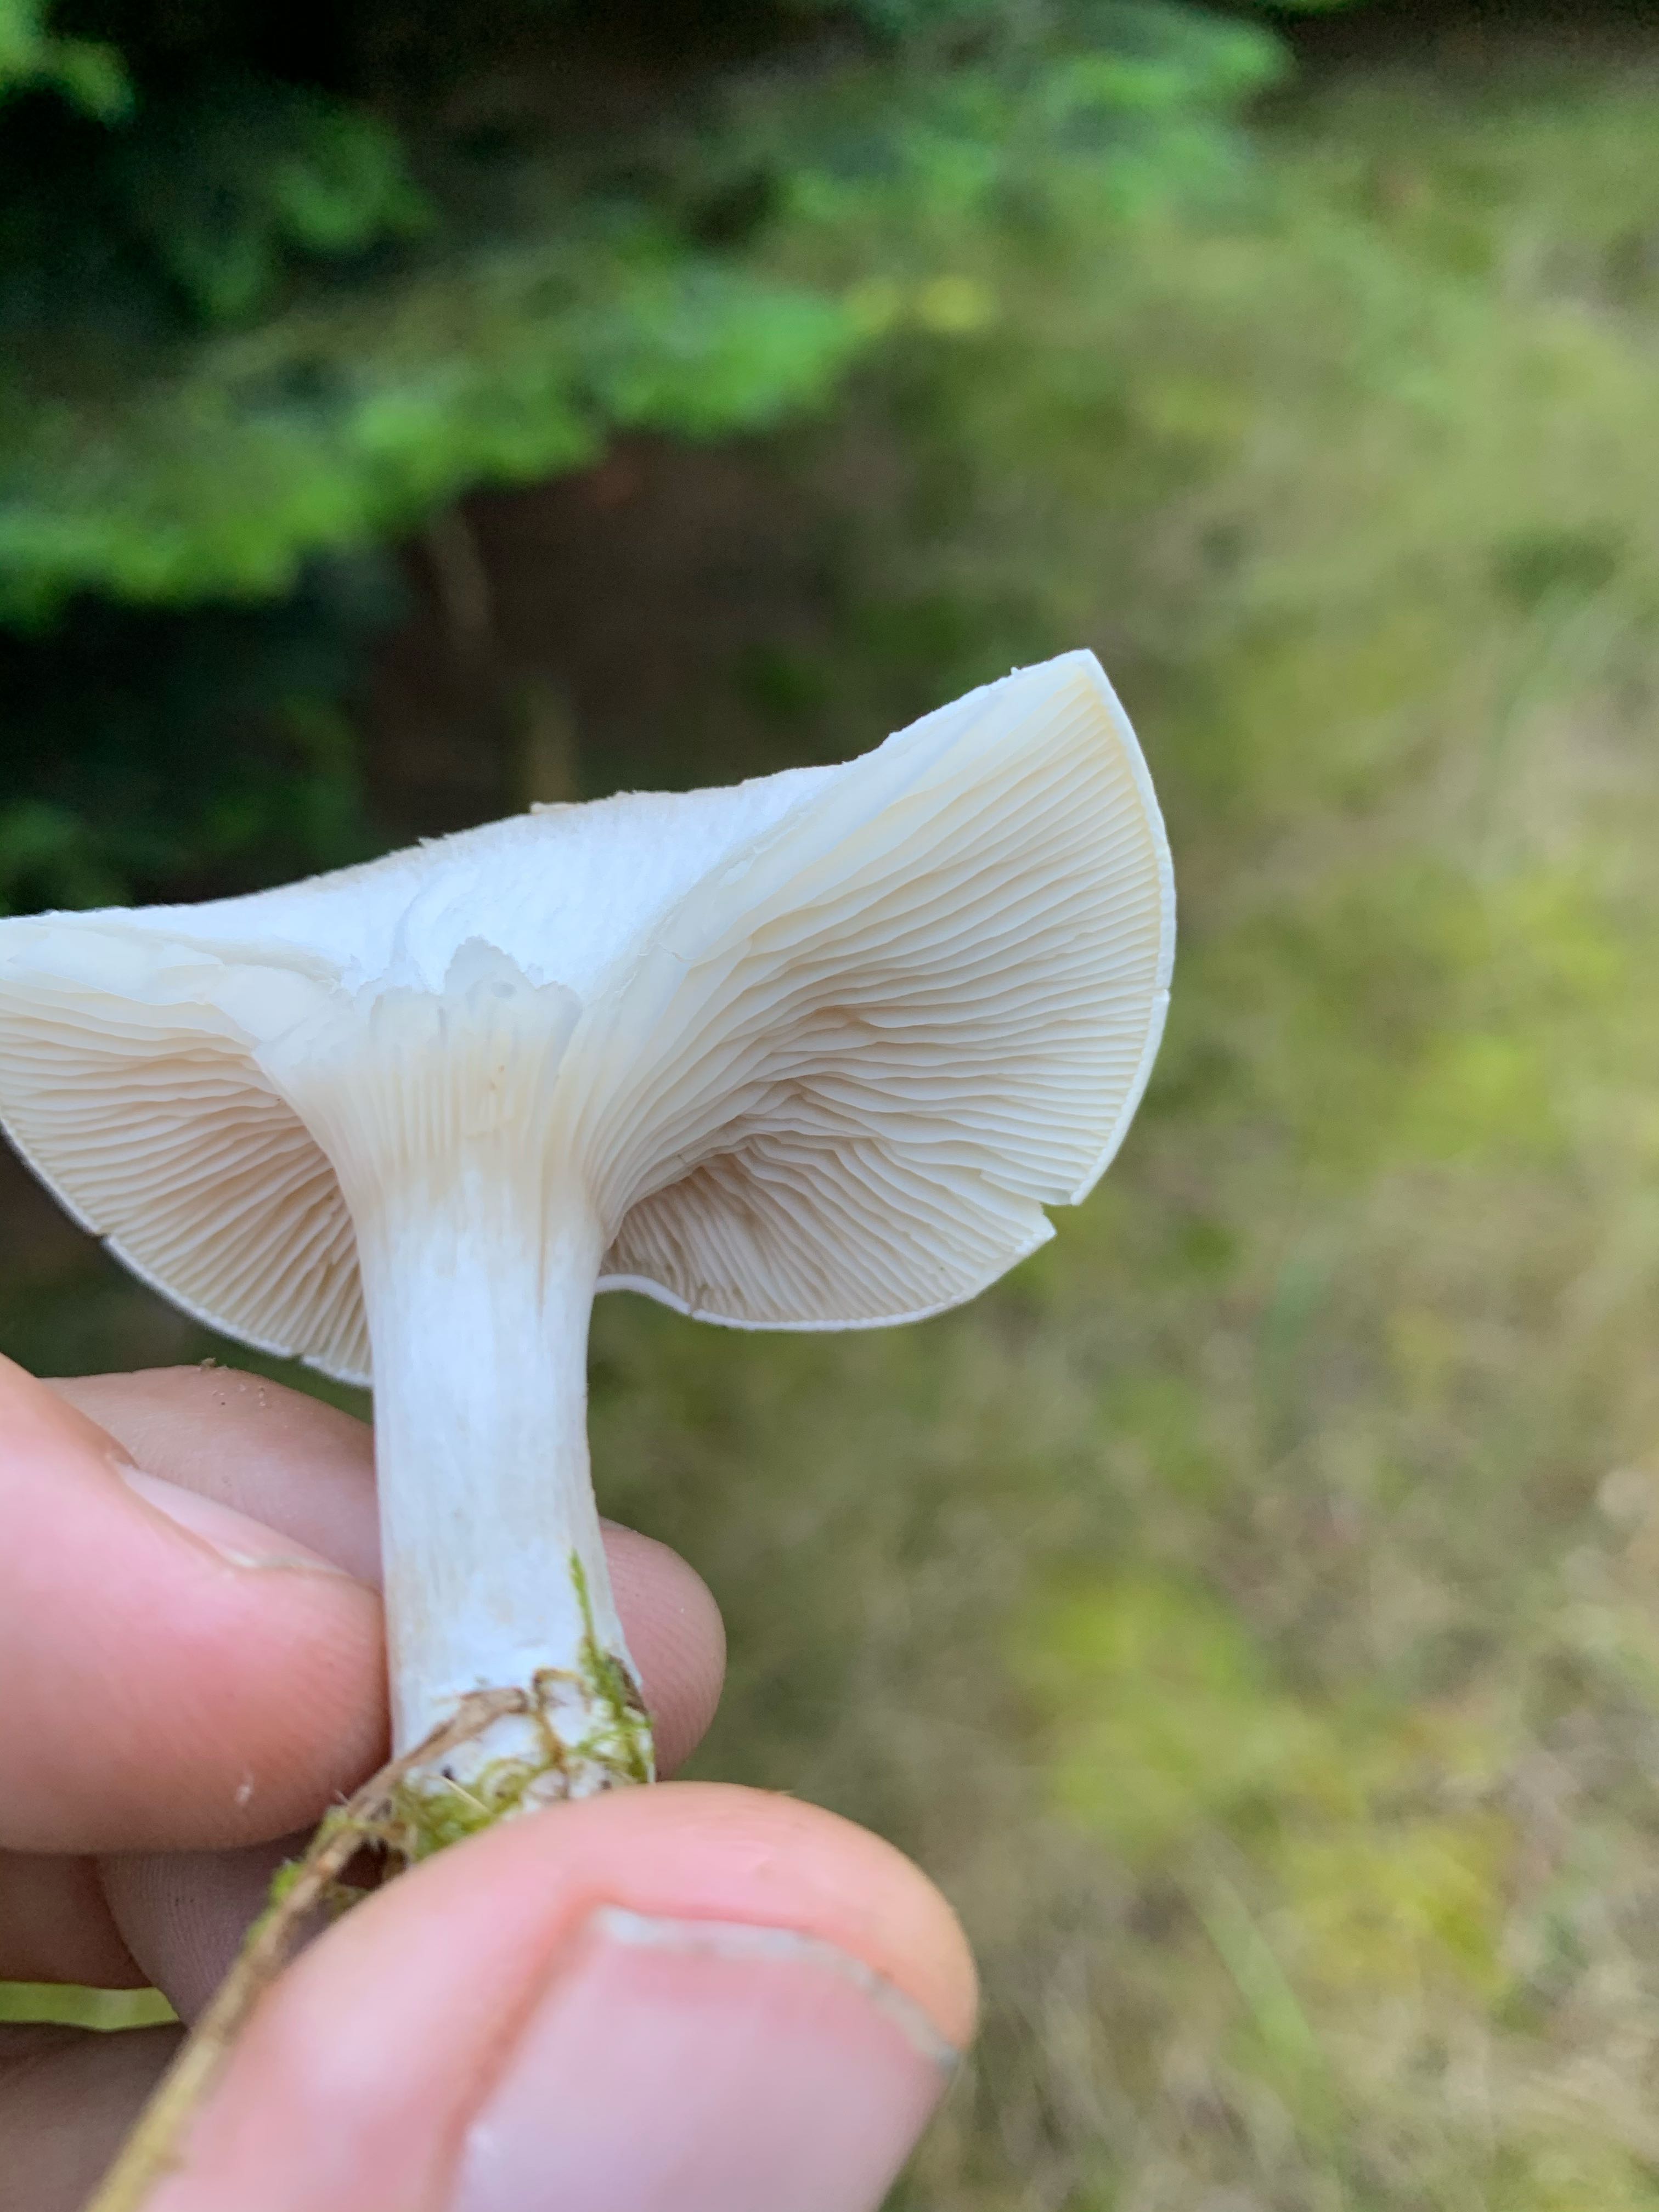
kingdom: Fungi
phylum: Basidiomycota
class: Agaricomycetes
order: Agaricales
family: Entolomataceae
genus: Clitopilus
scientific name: Clitopilus prunulus
